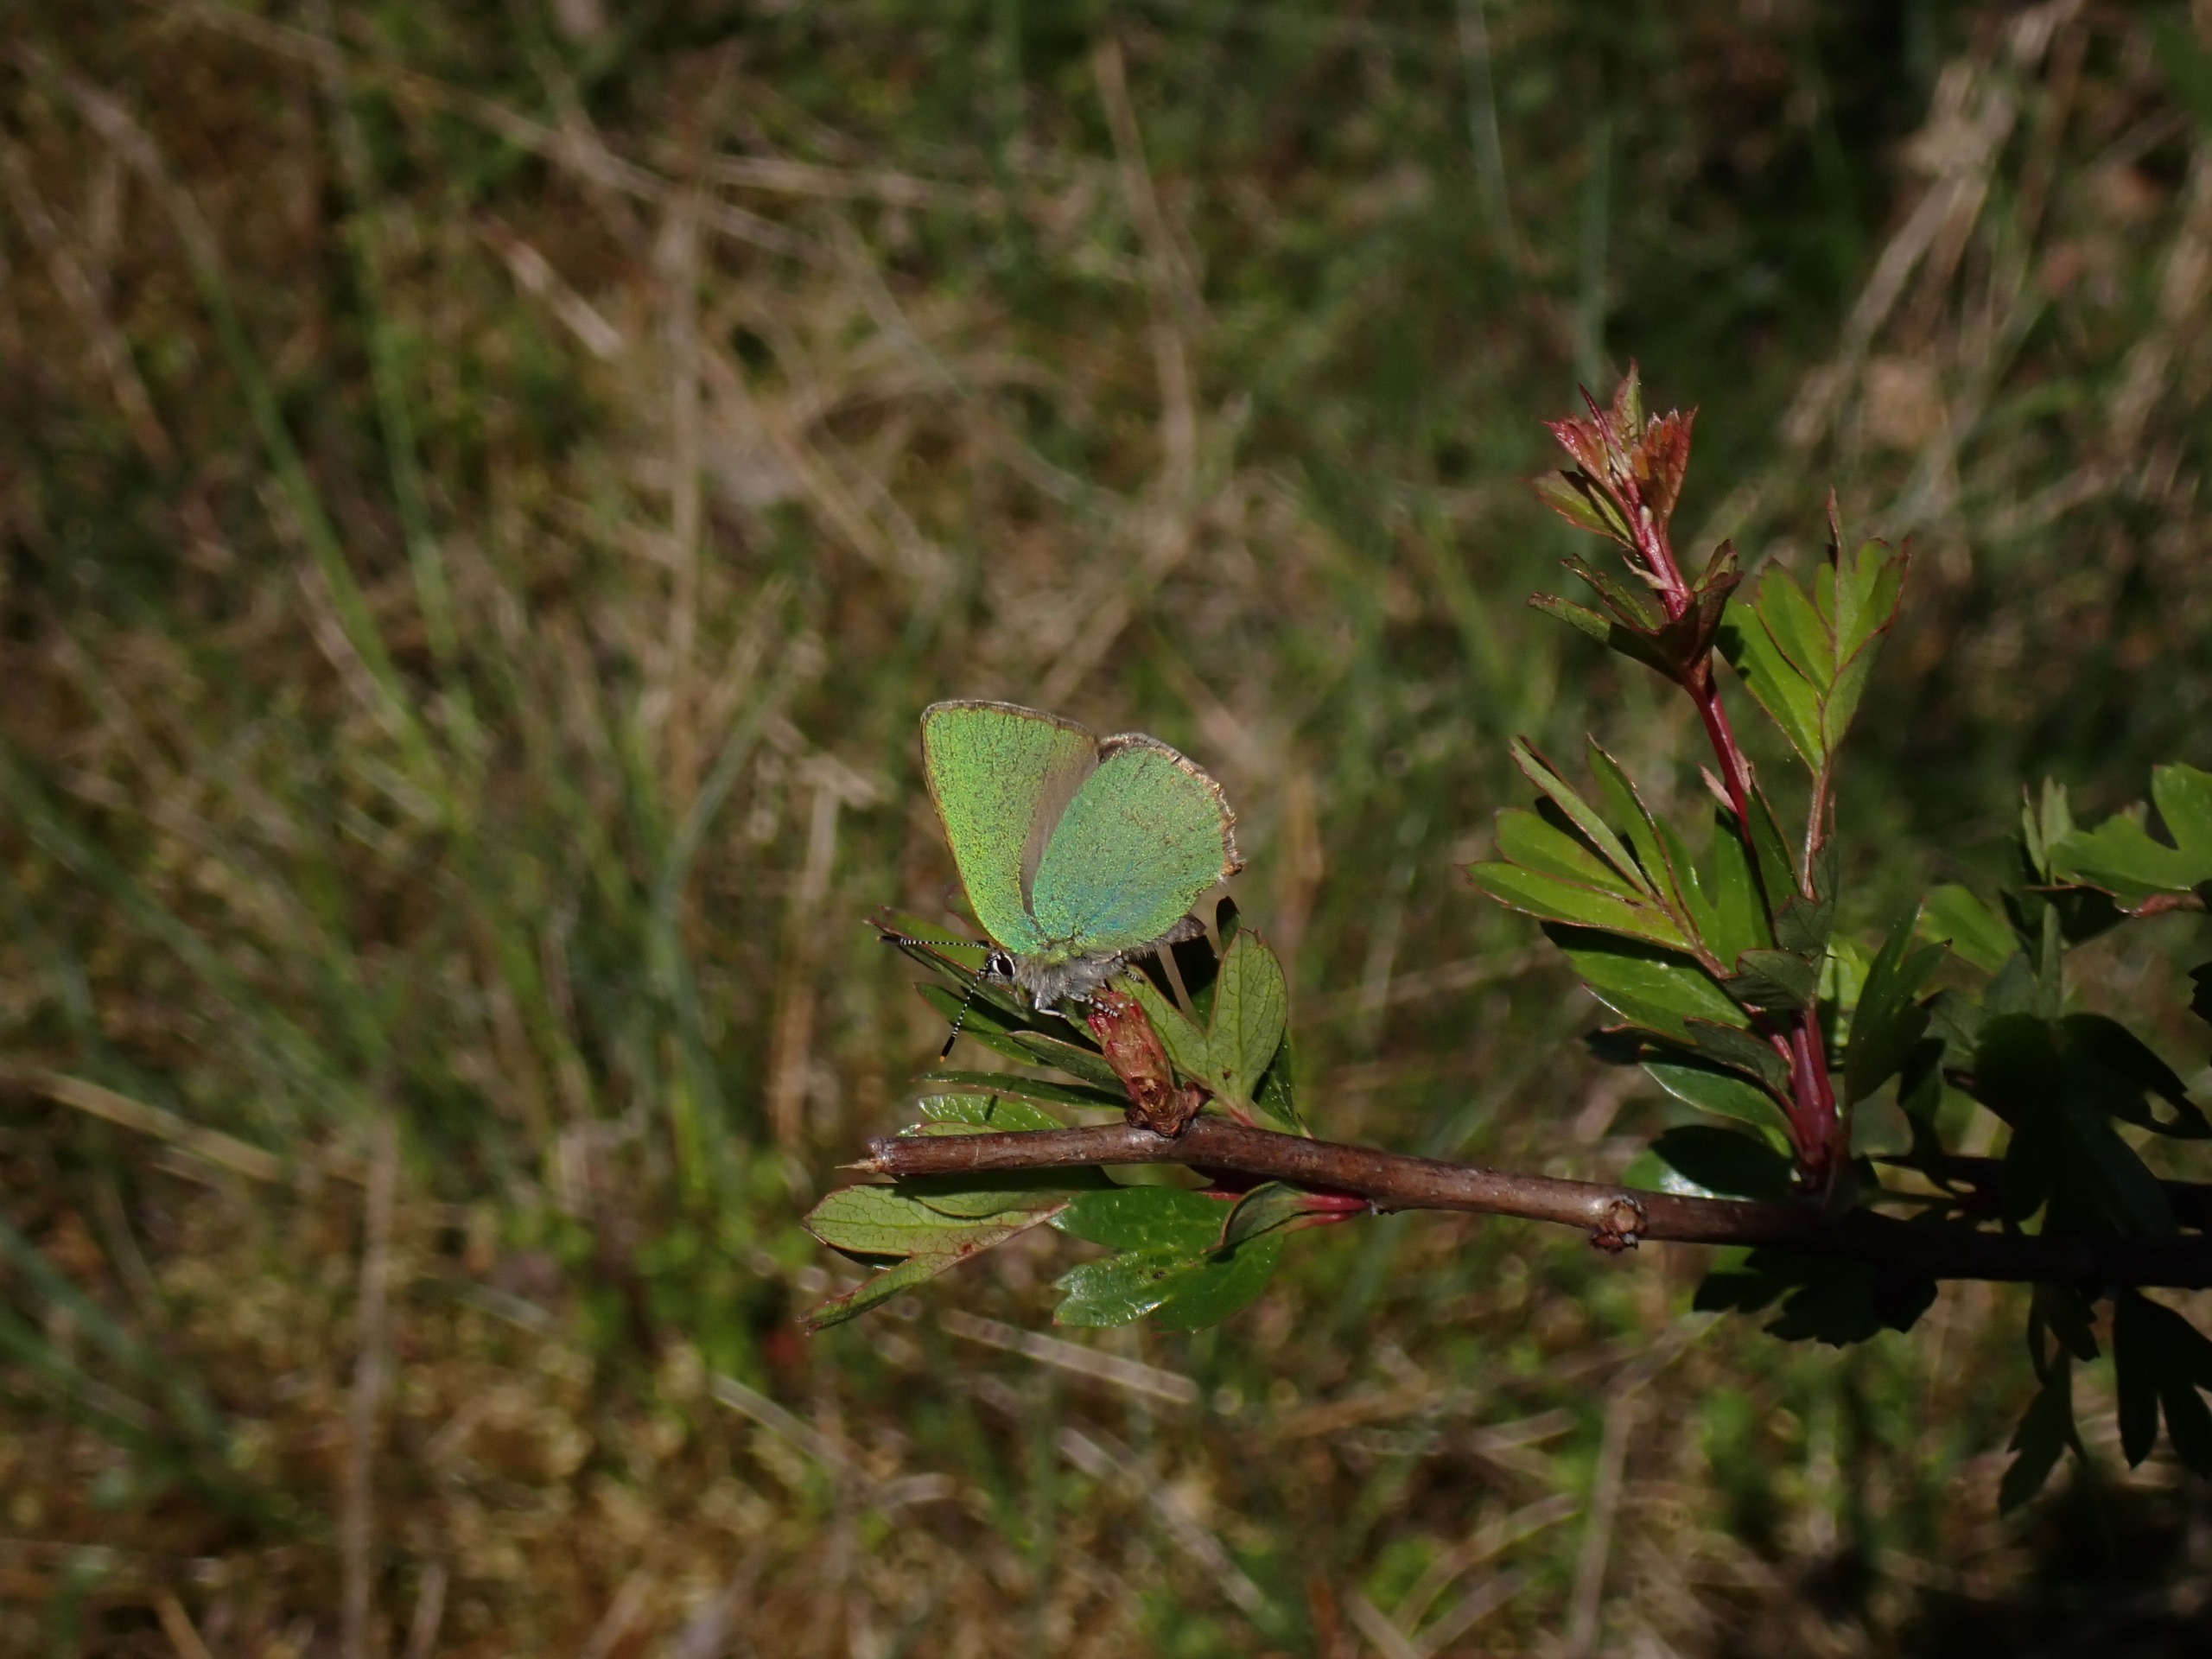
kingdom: Animalia
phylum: Arthropoda
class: Insecta
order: Lepidoptera
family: Lycaenidae
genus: Callophrys
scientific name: Callophrys rubi
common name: Grøn busksommerfugl
